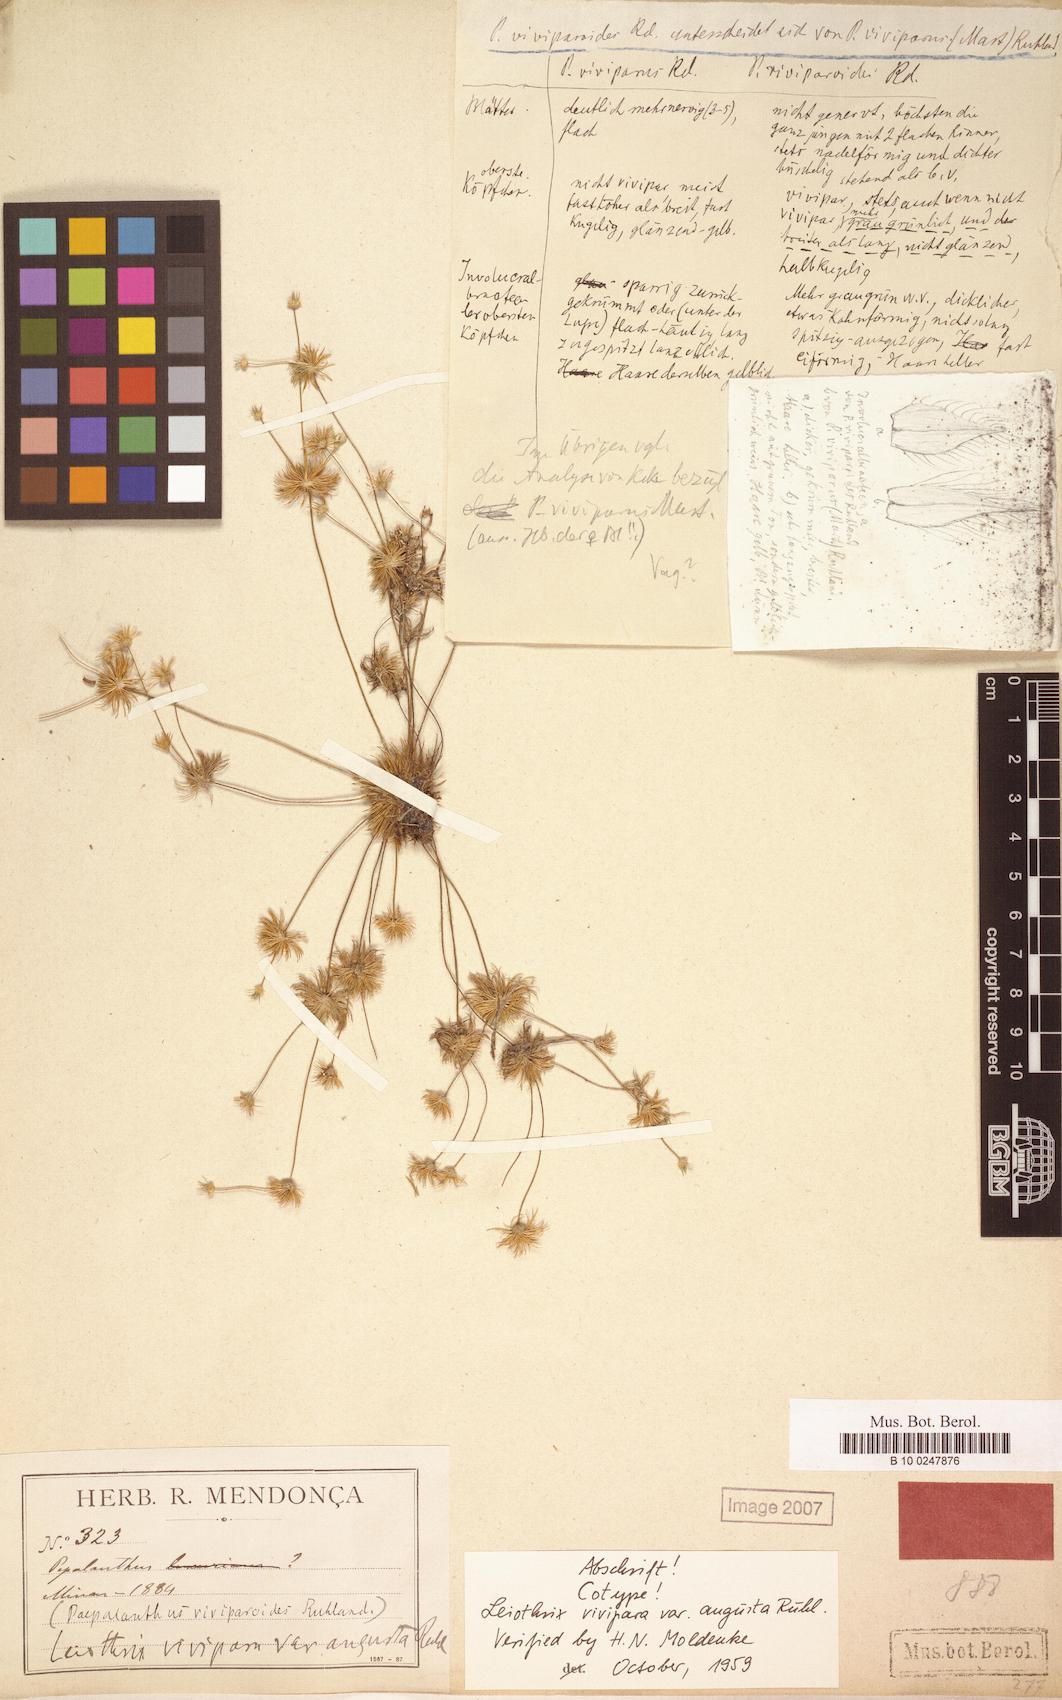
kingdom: Plantae
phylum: Tracheophyta
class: Liliopsida
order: Poales
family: Eriocaulaceae
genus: Leiothrix
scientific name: Leiothrix vivipara
